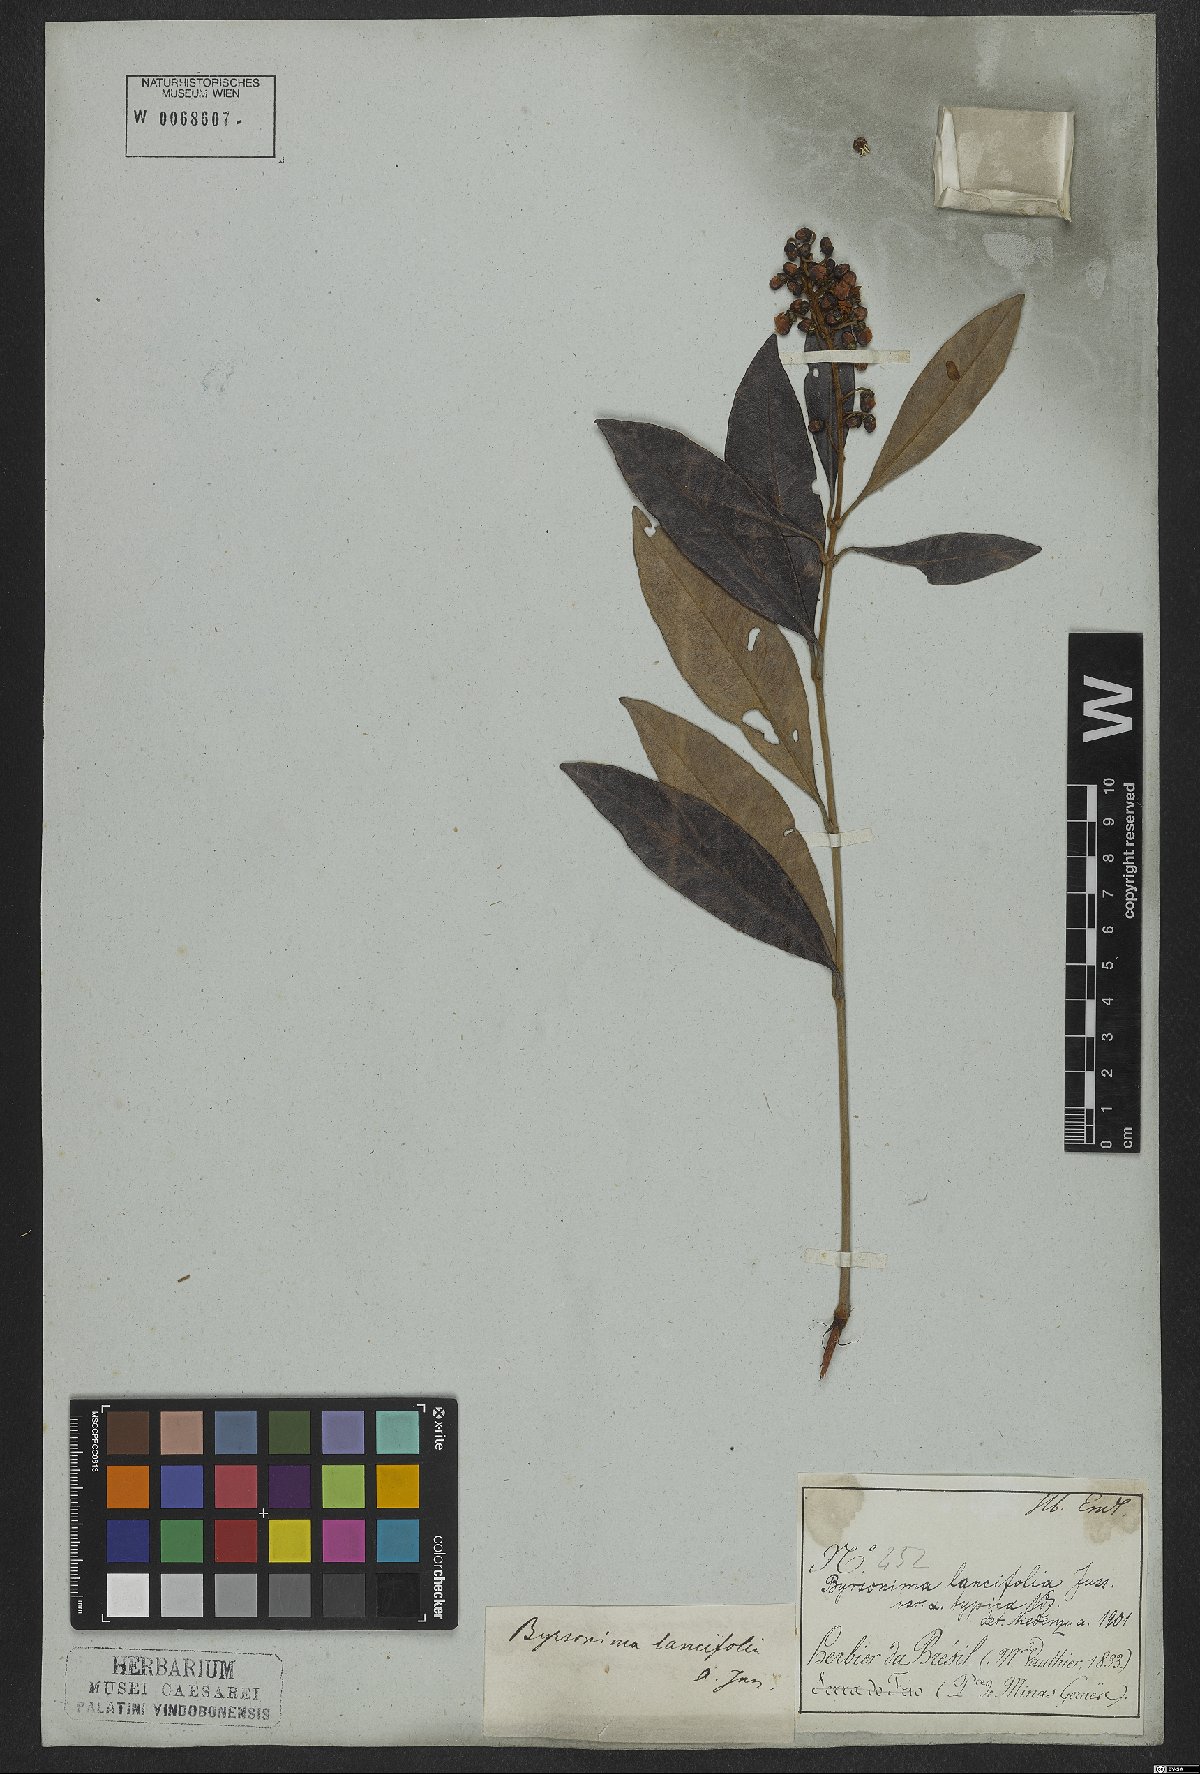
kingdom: Plantae
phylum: Tracheophyta
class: Magnoliopsida
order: Malpighiales
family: Malpighiaceae
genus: Byrsonima
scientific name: Byrsonima lancifolia
